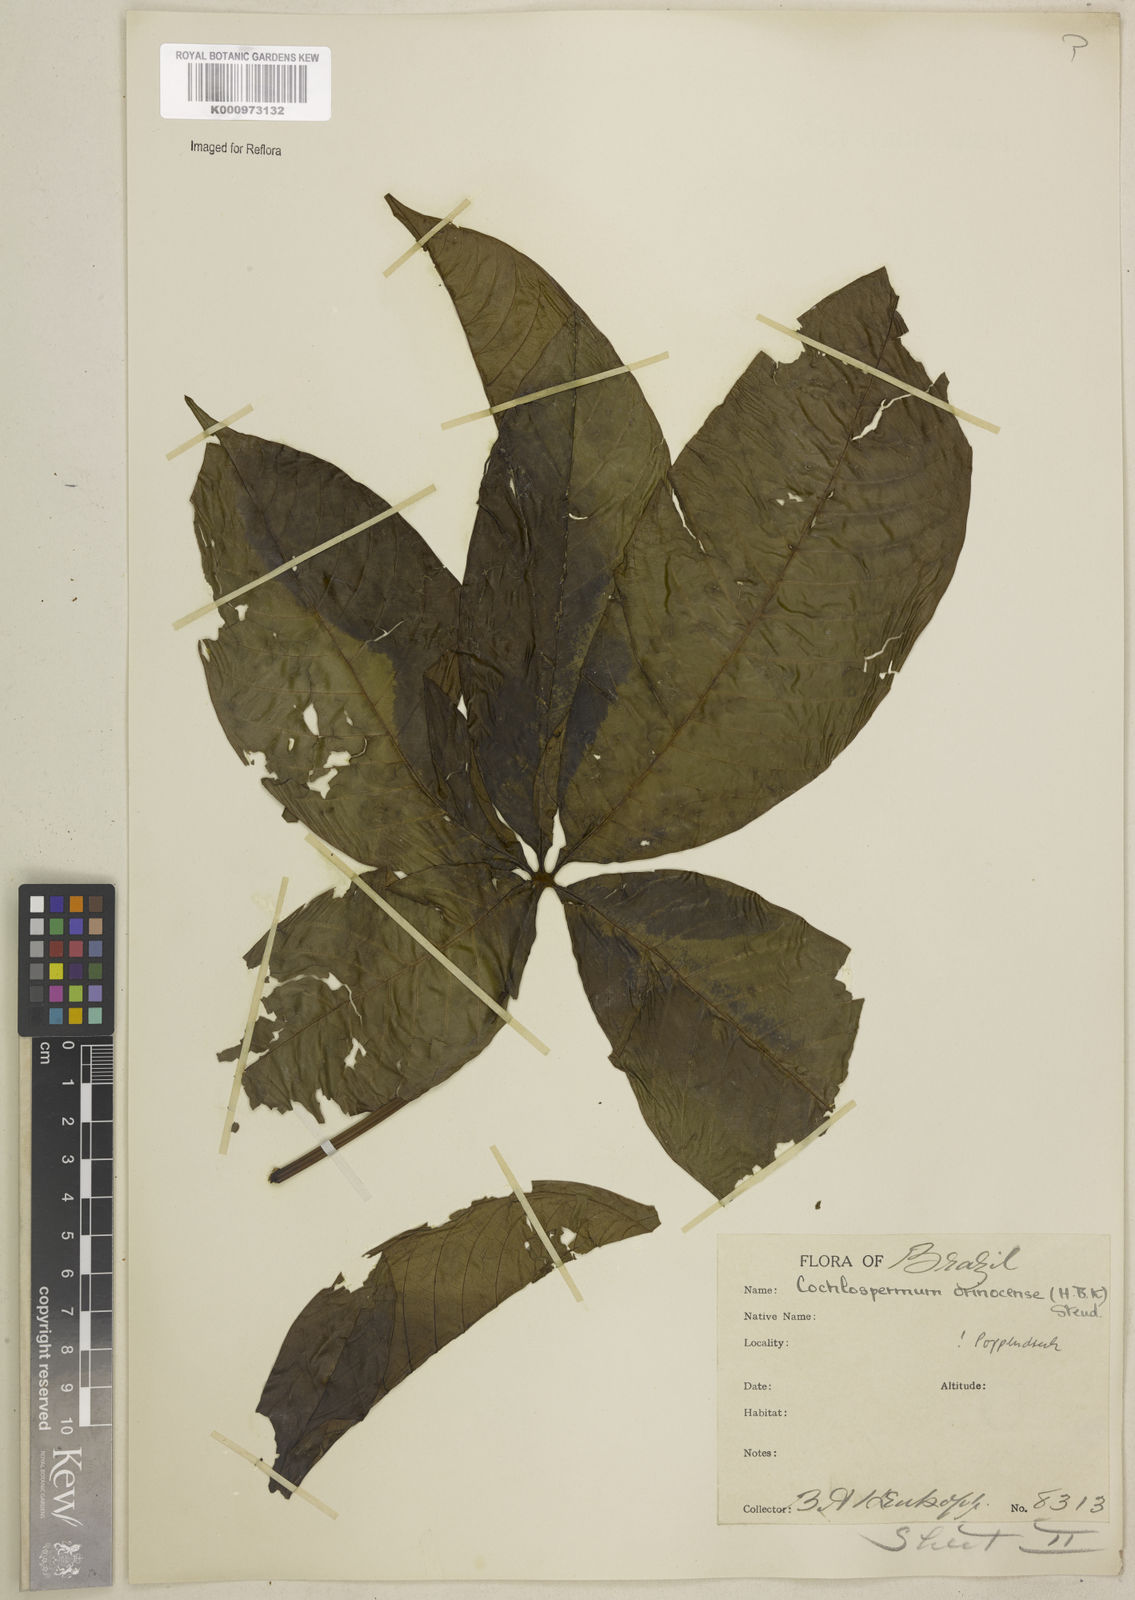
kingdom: Plantae
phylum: Tracheophyta
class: Magnoliopsida
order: Malvales
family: Cochlospermaceae
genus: Cochlospermum
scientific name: Cochlospermum orinocense
